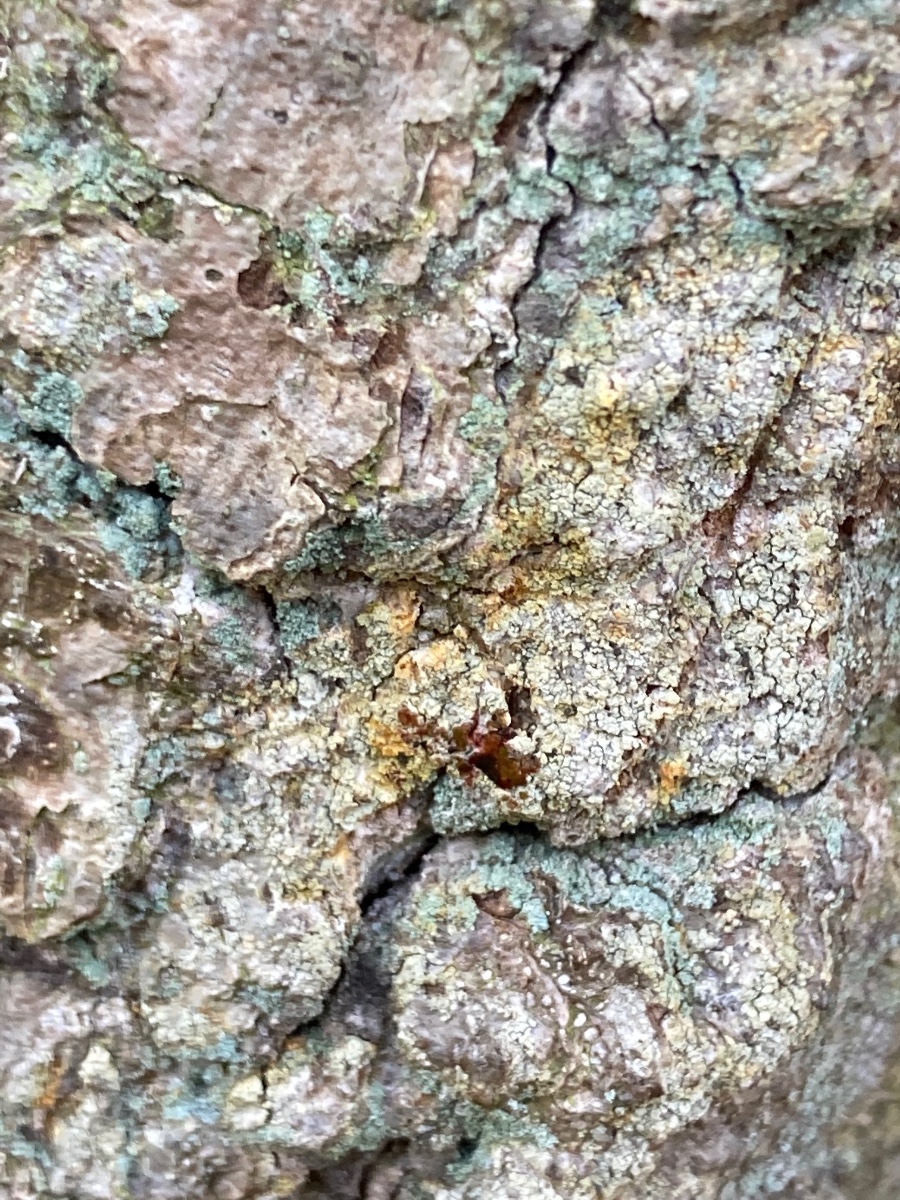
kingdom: Fungi
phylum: Ascomycota
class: Coniocybomycetes
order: Coniocybales
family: Coniocybaceae
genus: Chaenotheca
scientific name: Chaenotheca ferruginea
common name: rustbrun knappenålslav
